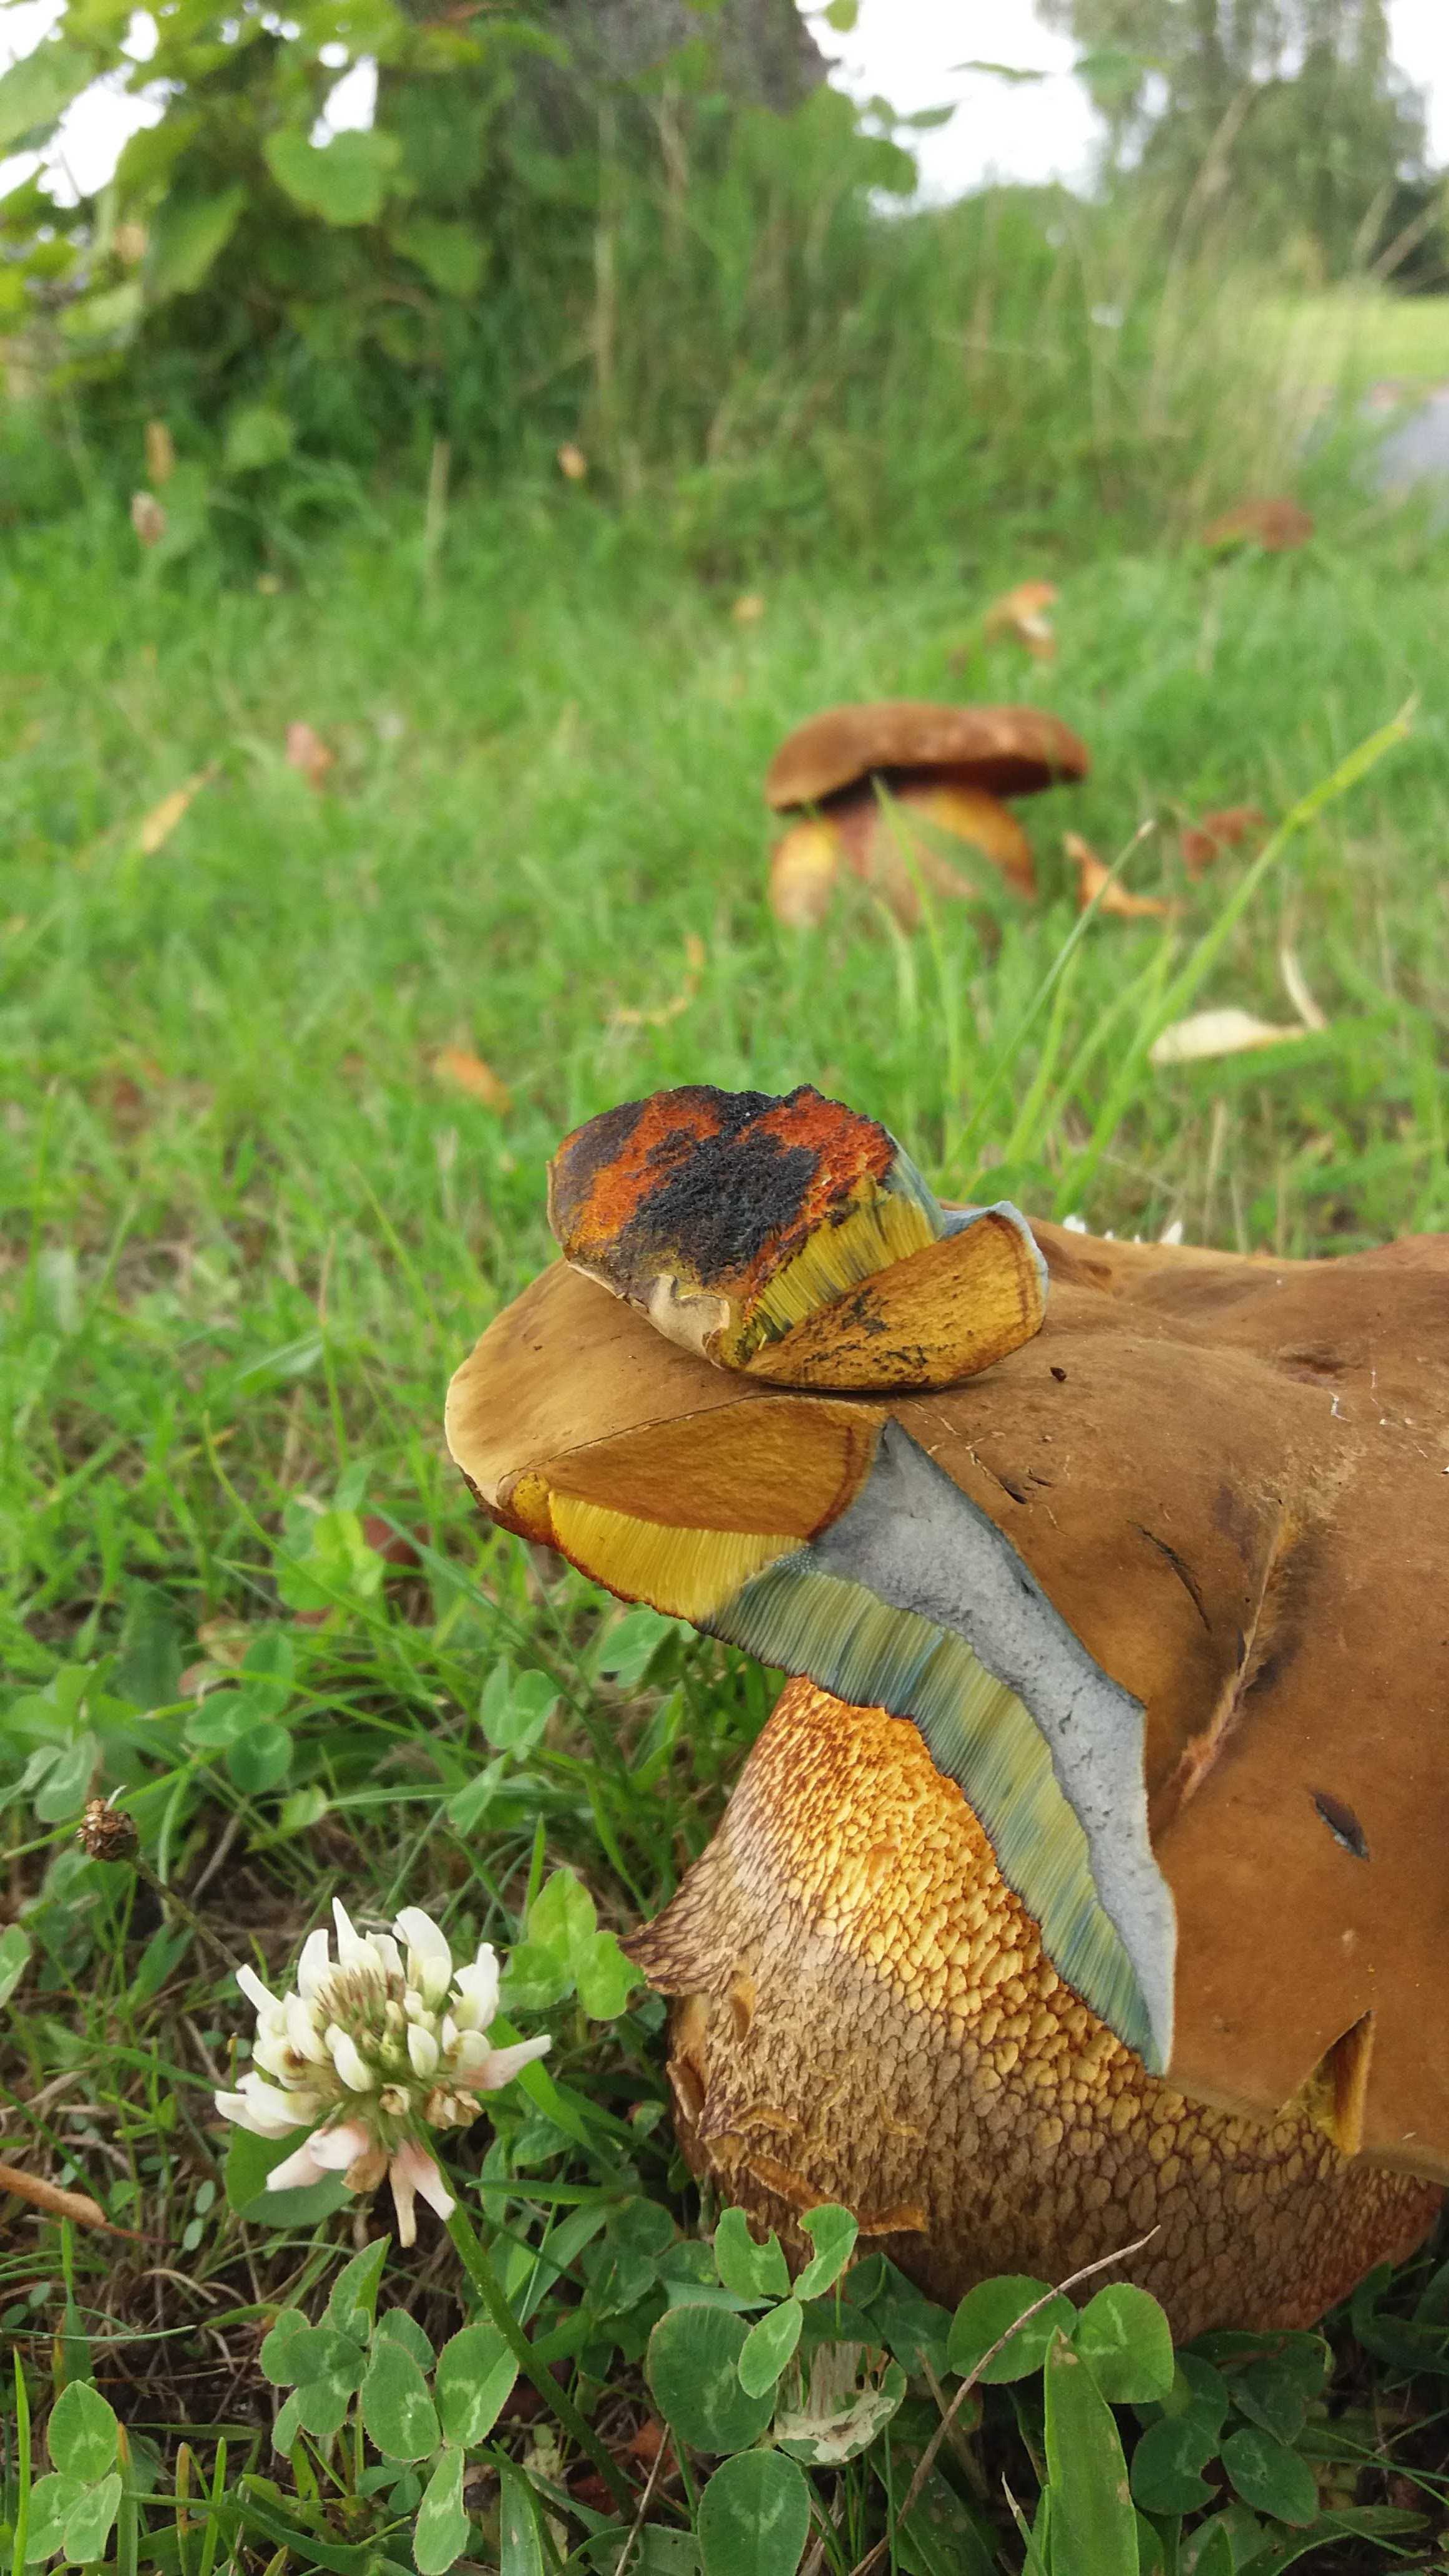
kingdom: Fungi
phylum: Basidiomycota
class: Agaricomycetes
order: Boletales
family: Boletaceae
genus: Suillellus
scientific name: Suillellus luridus
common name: netstokket indigorørhat
